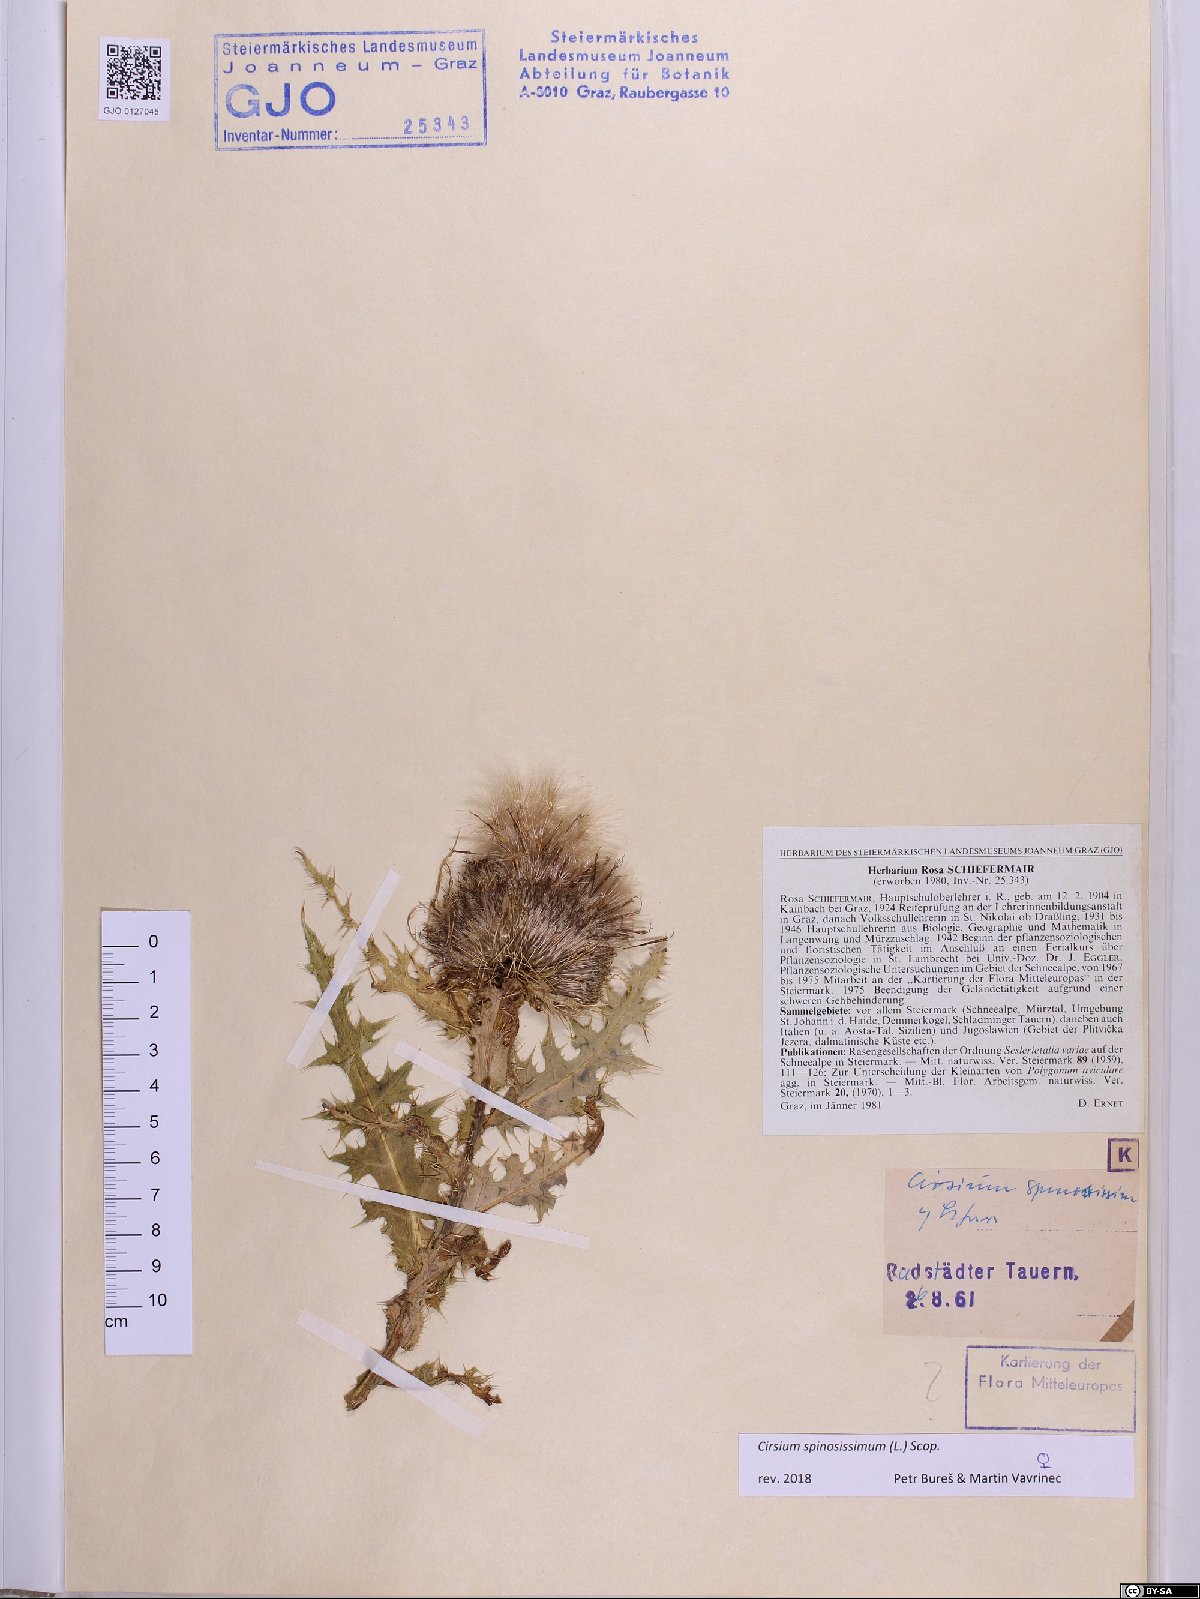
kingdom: Plantae
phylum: Tracheophyta
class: Magnoliopsida
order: Asterales
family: Asteraceae
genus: Cirsium
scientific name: Cirsium spinosissimum
